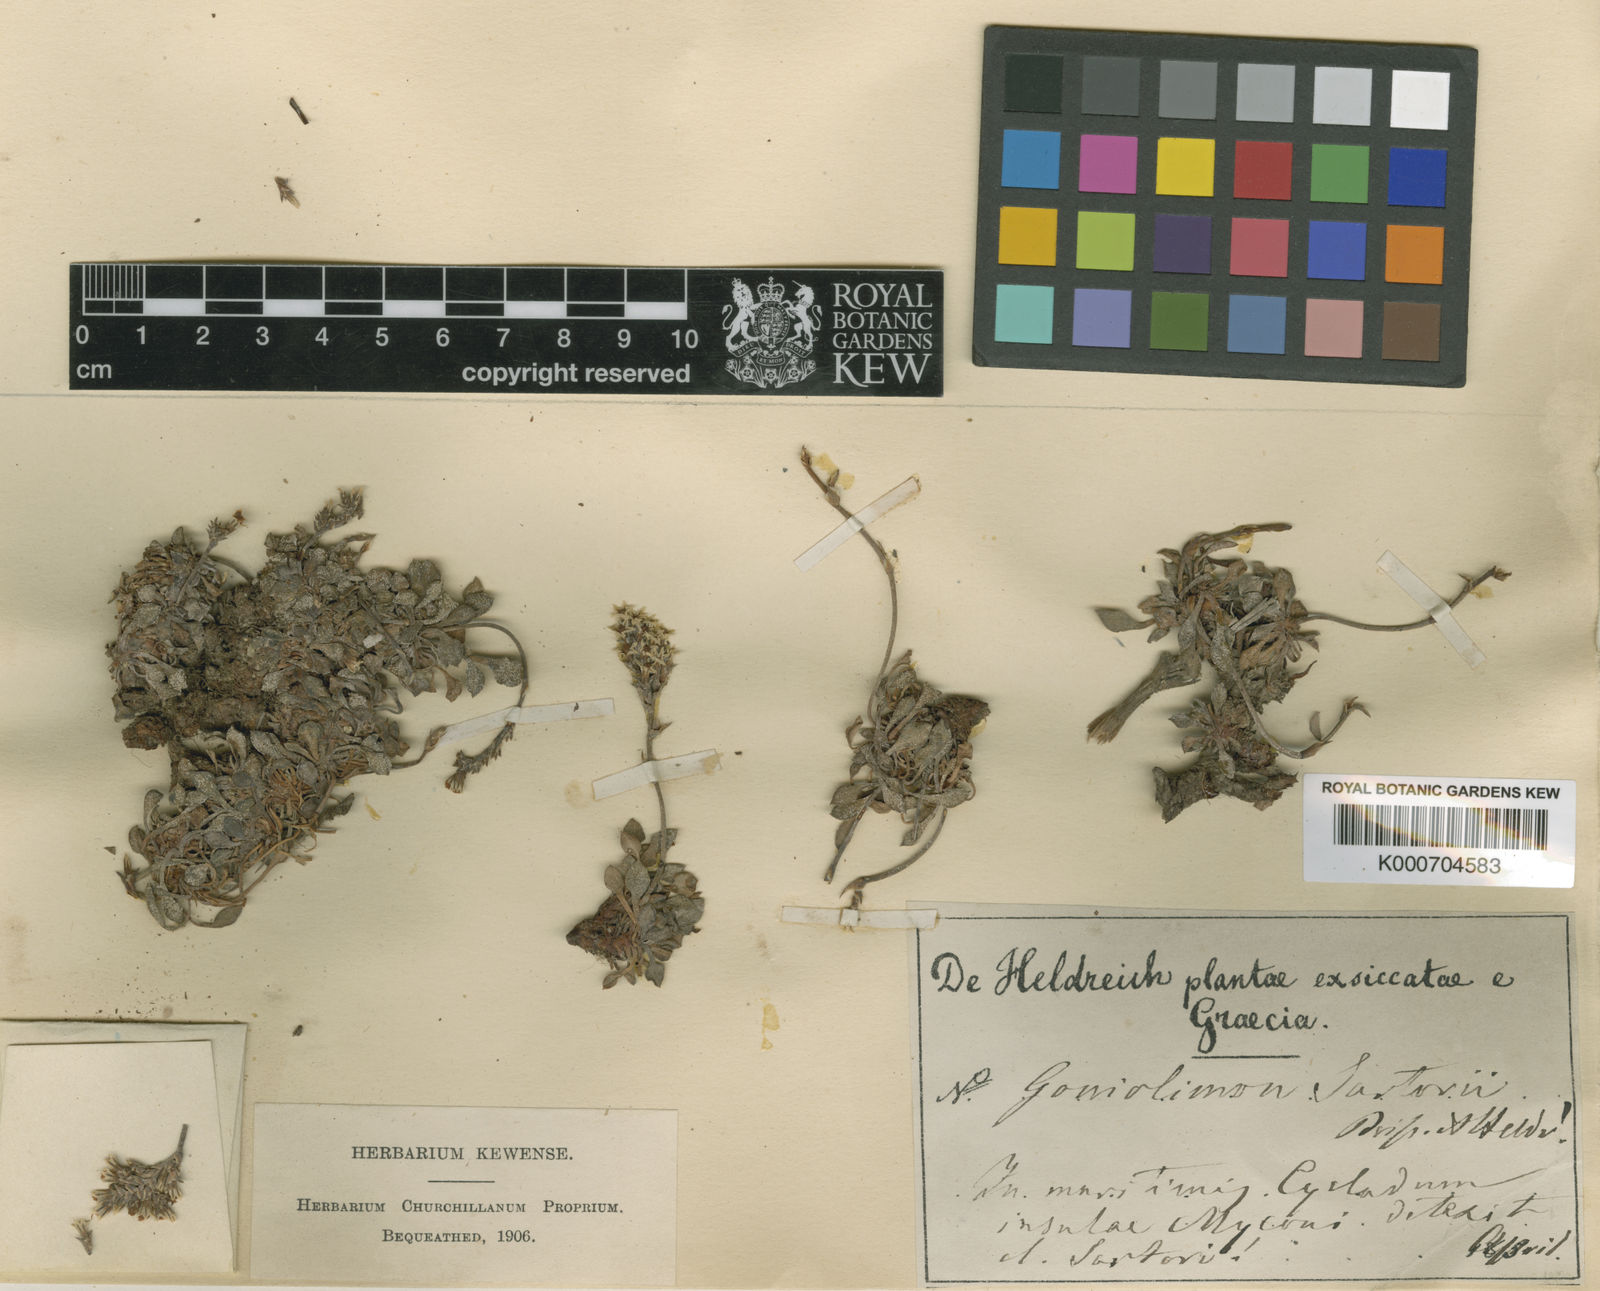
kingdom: Plantae
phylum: Tracheophyta
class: Magnoliopsida
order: Caryophyllales
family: Plumbaginaceae
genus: Goniolimon
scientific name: Goniolimon sartorii
